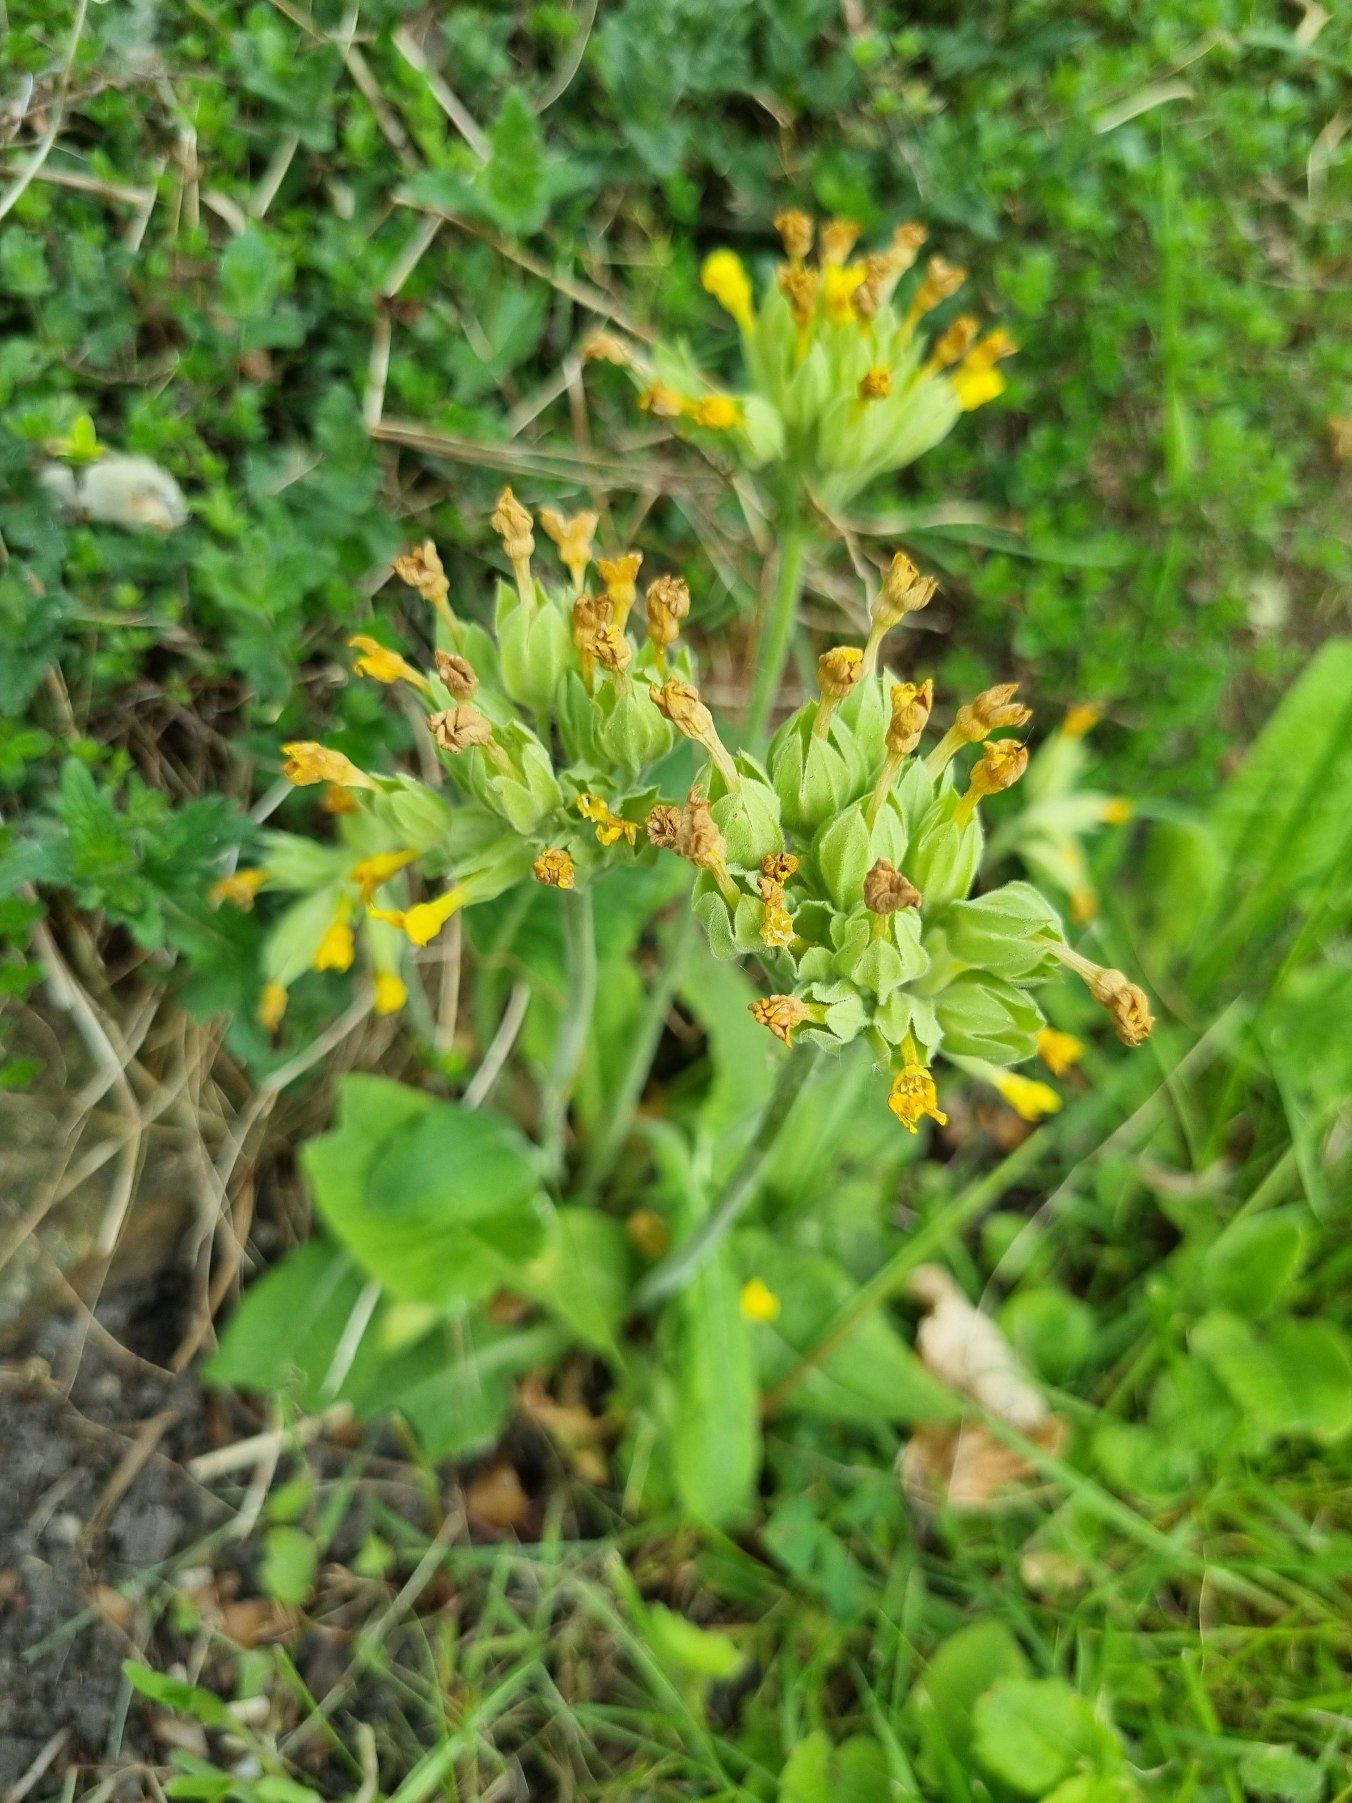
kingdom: Plantae
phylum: Tracheophyta
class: Magnoliopsida
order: Ericales
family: Primulaceae
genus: Primula
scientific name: Primula veris
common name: Hulkravet kodriver
